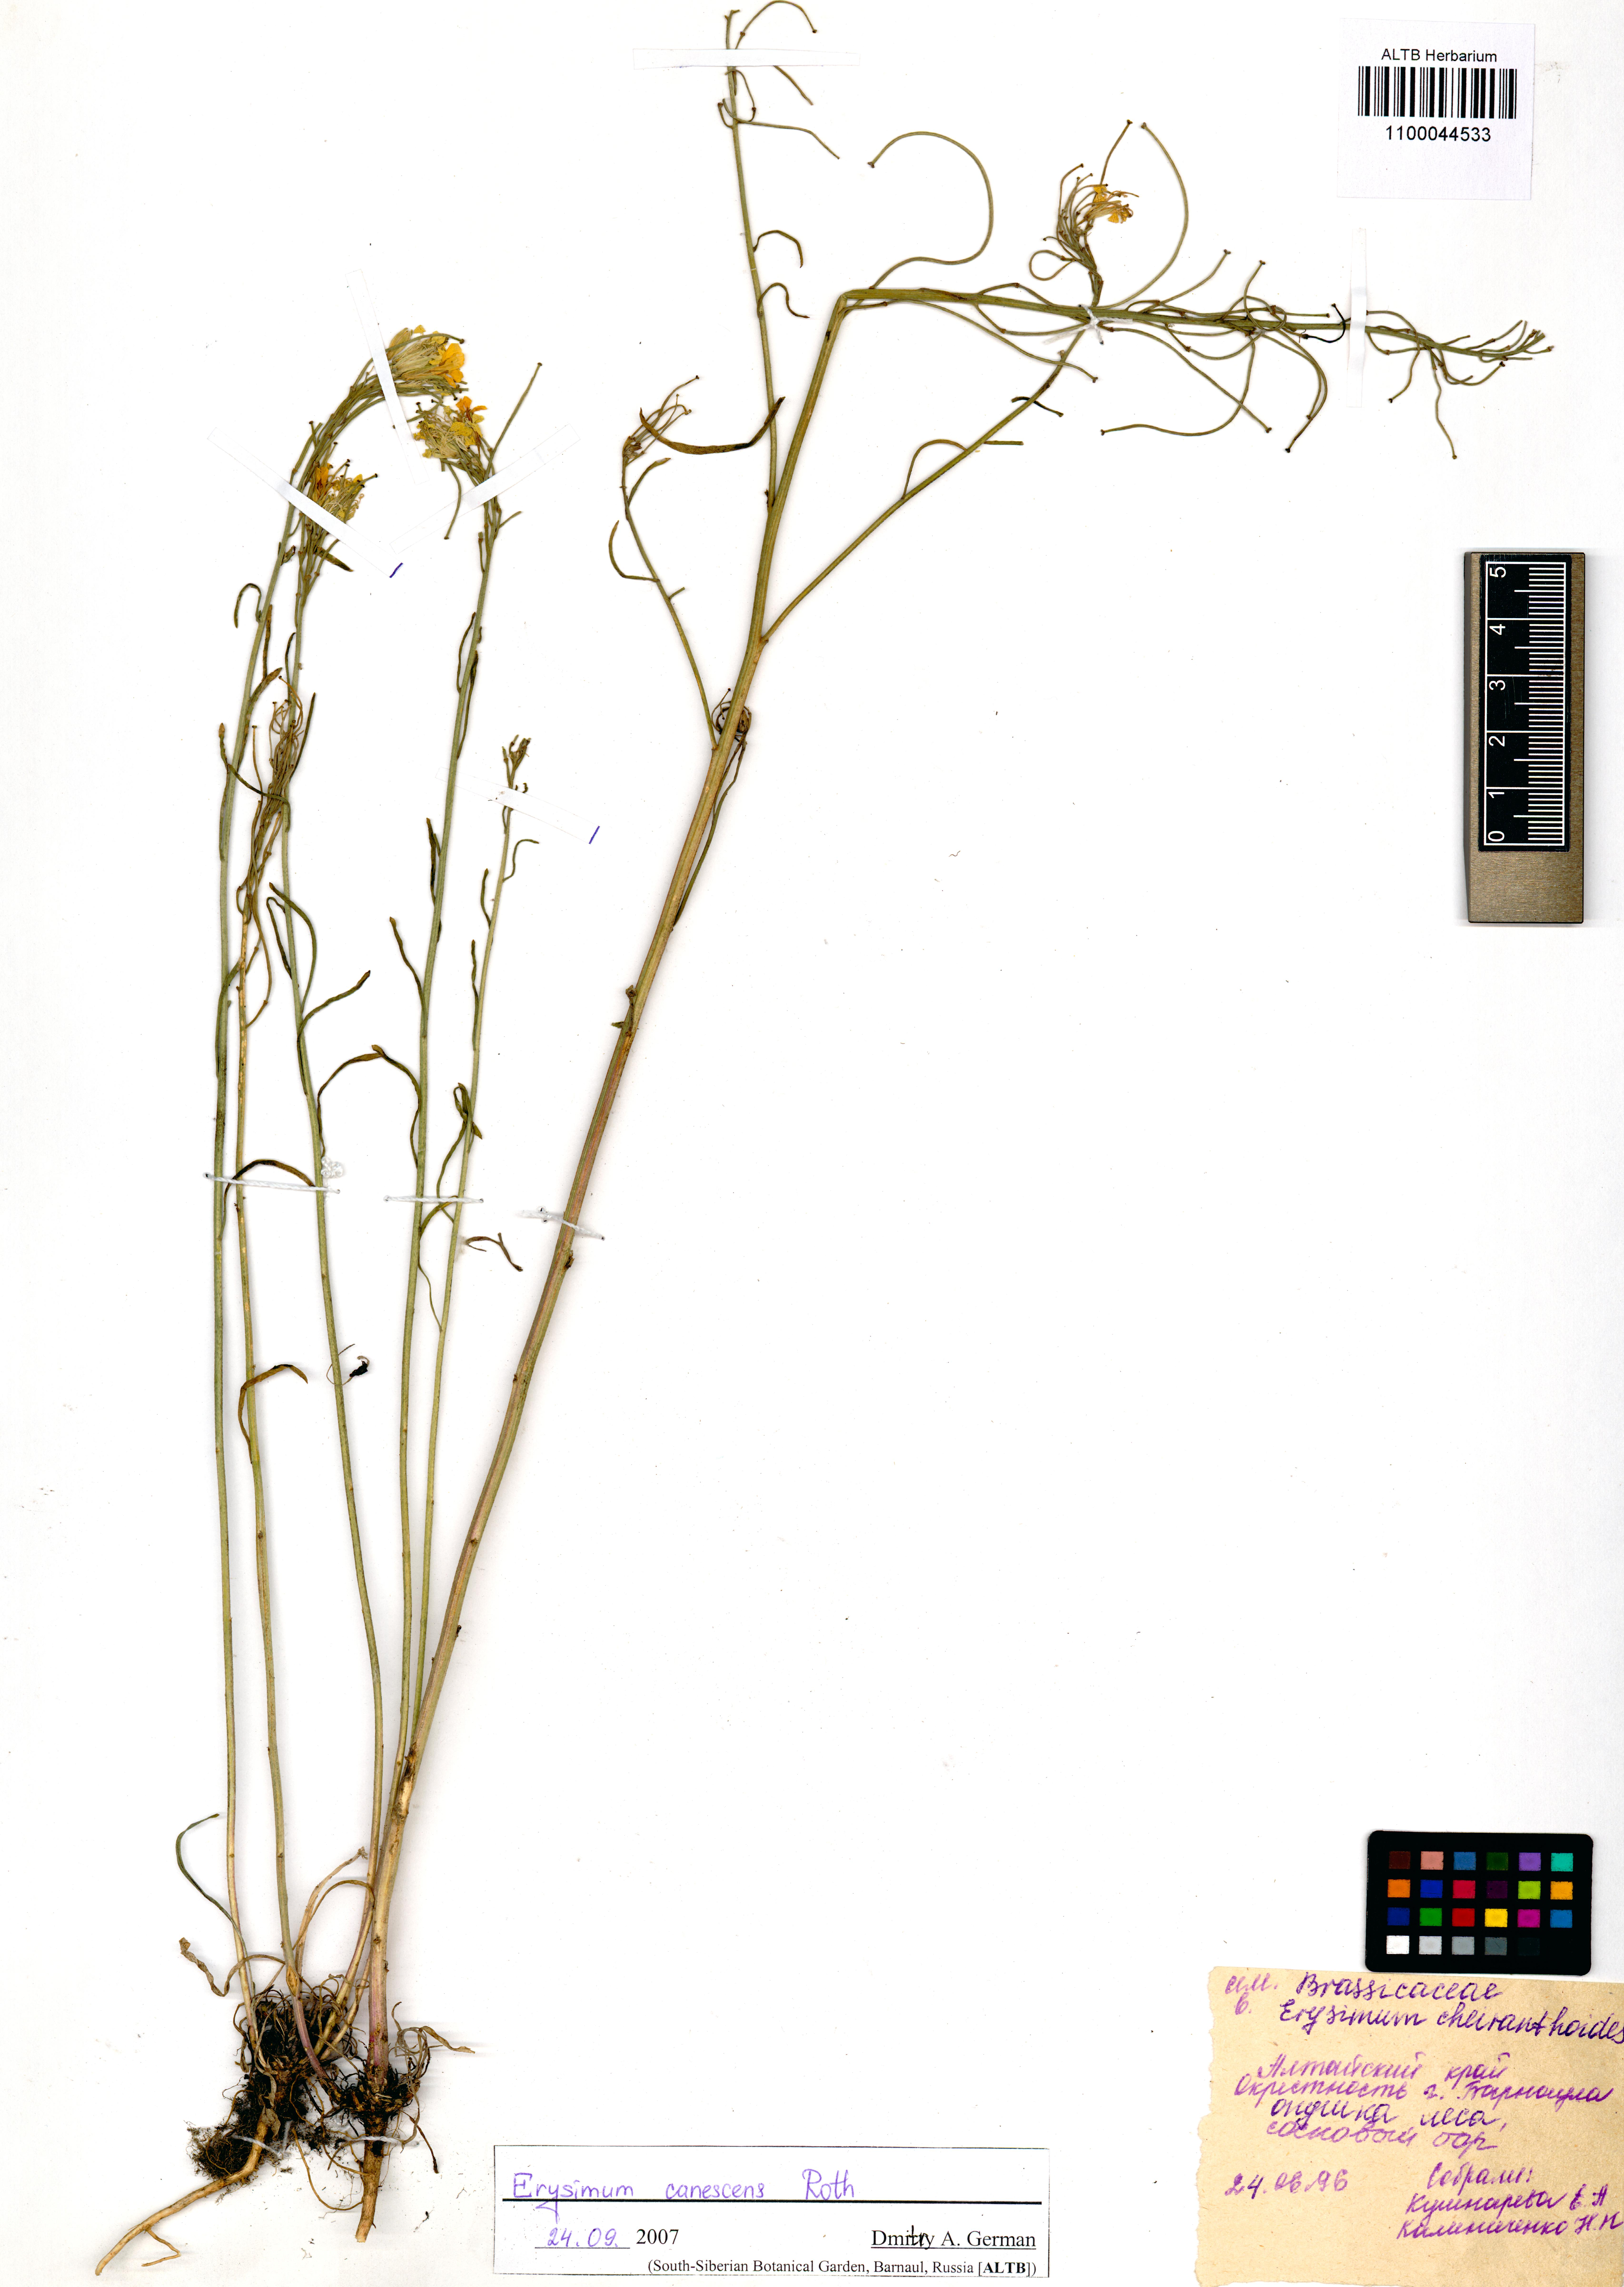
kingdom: Plantae
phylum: Tracheophyta
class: Magnoliopsida
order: Brassicales
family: Brassicaceae
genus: Erysimum
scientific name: Erysimum canescens
